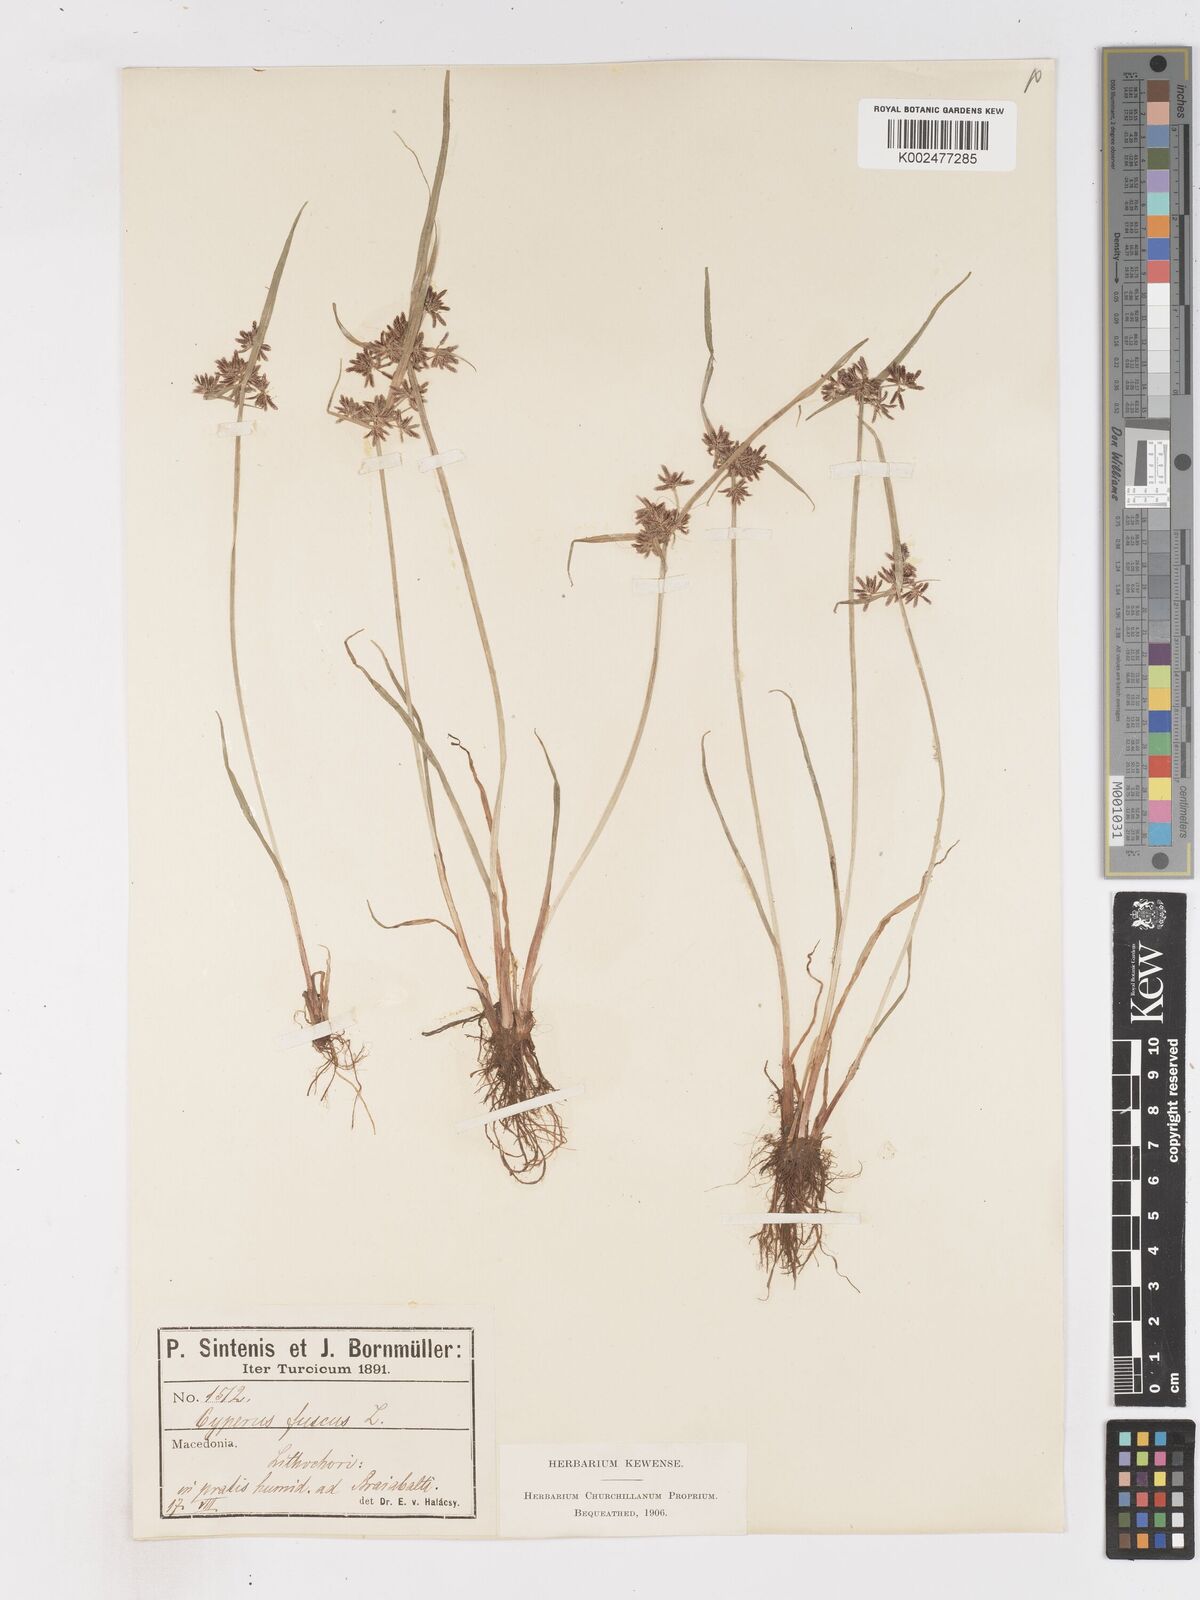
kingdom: Plantae
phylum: Tracheophyta
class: Liliopsida
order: Poales
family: Cyperaceae
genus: Cyperus
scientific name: Cyperus fuscus
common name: Brown galingale
